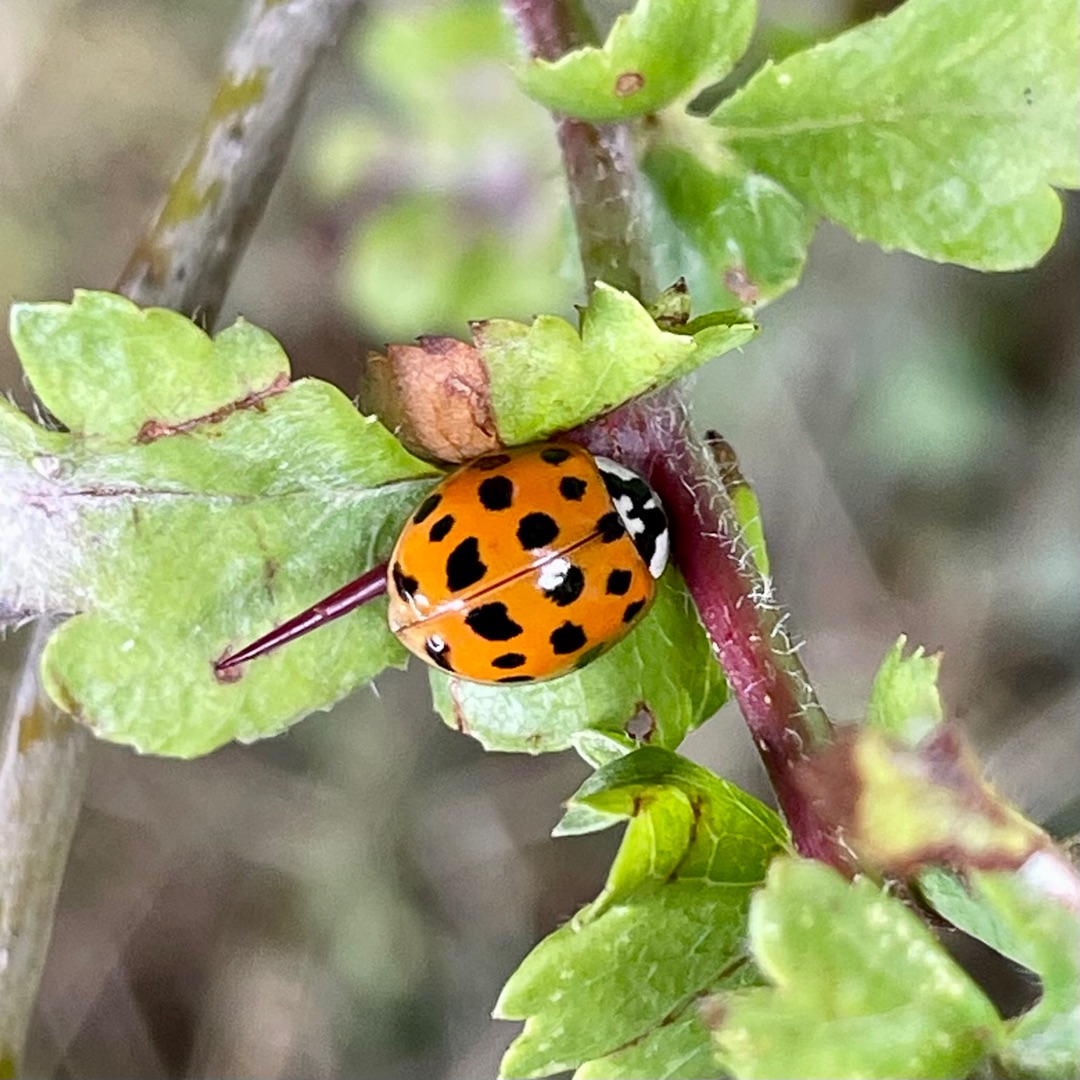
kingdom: Animalia
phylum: Arthropoda
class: Insecta
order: Coleoptera
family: Coccinellidae
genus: Harmonia
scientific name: Harmonia axyridis
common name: Harlekinmariehøne
